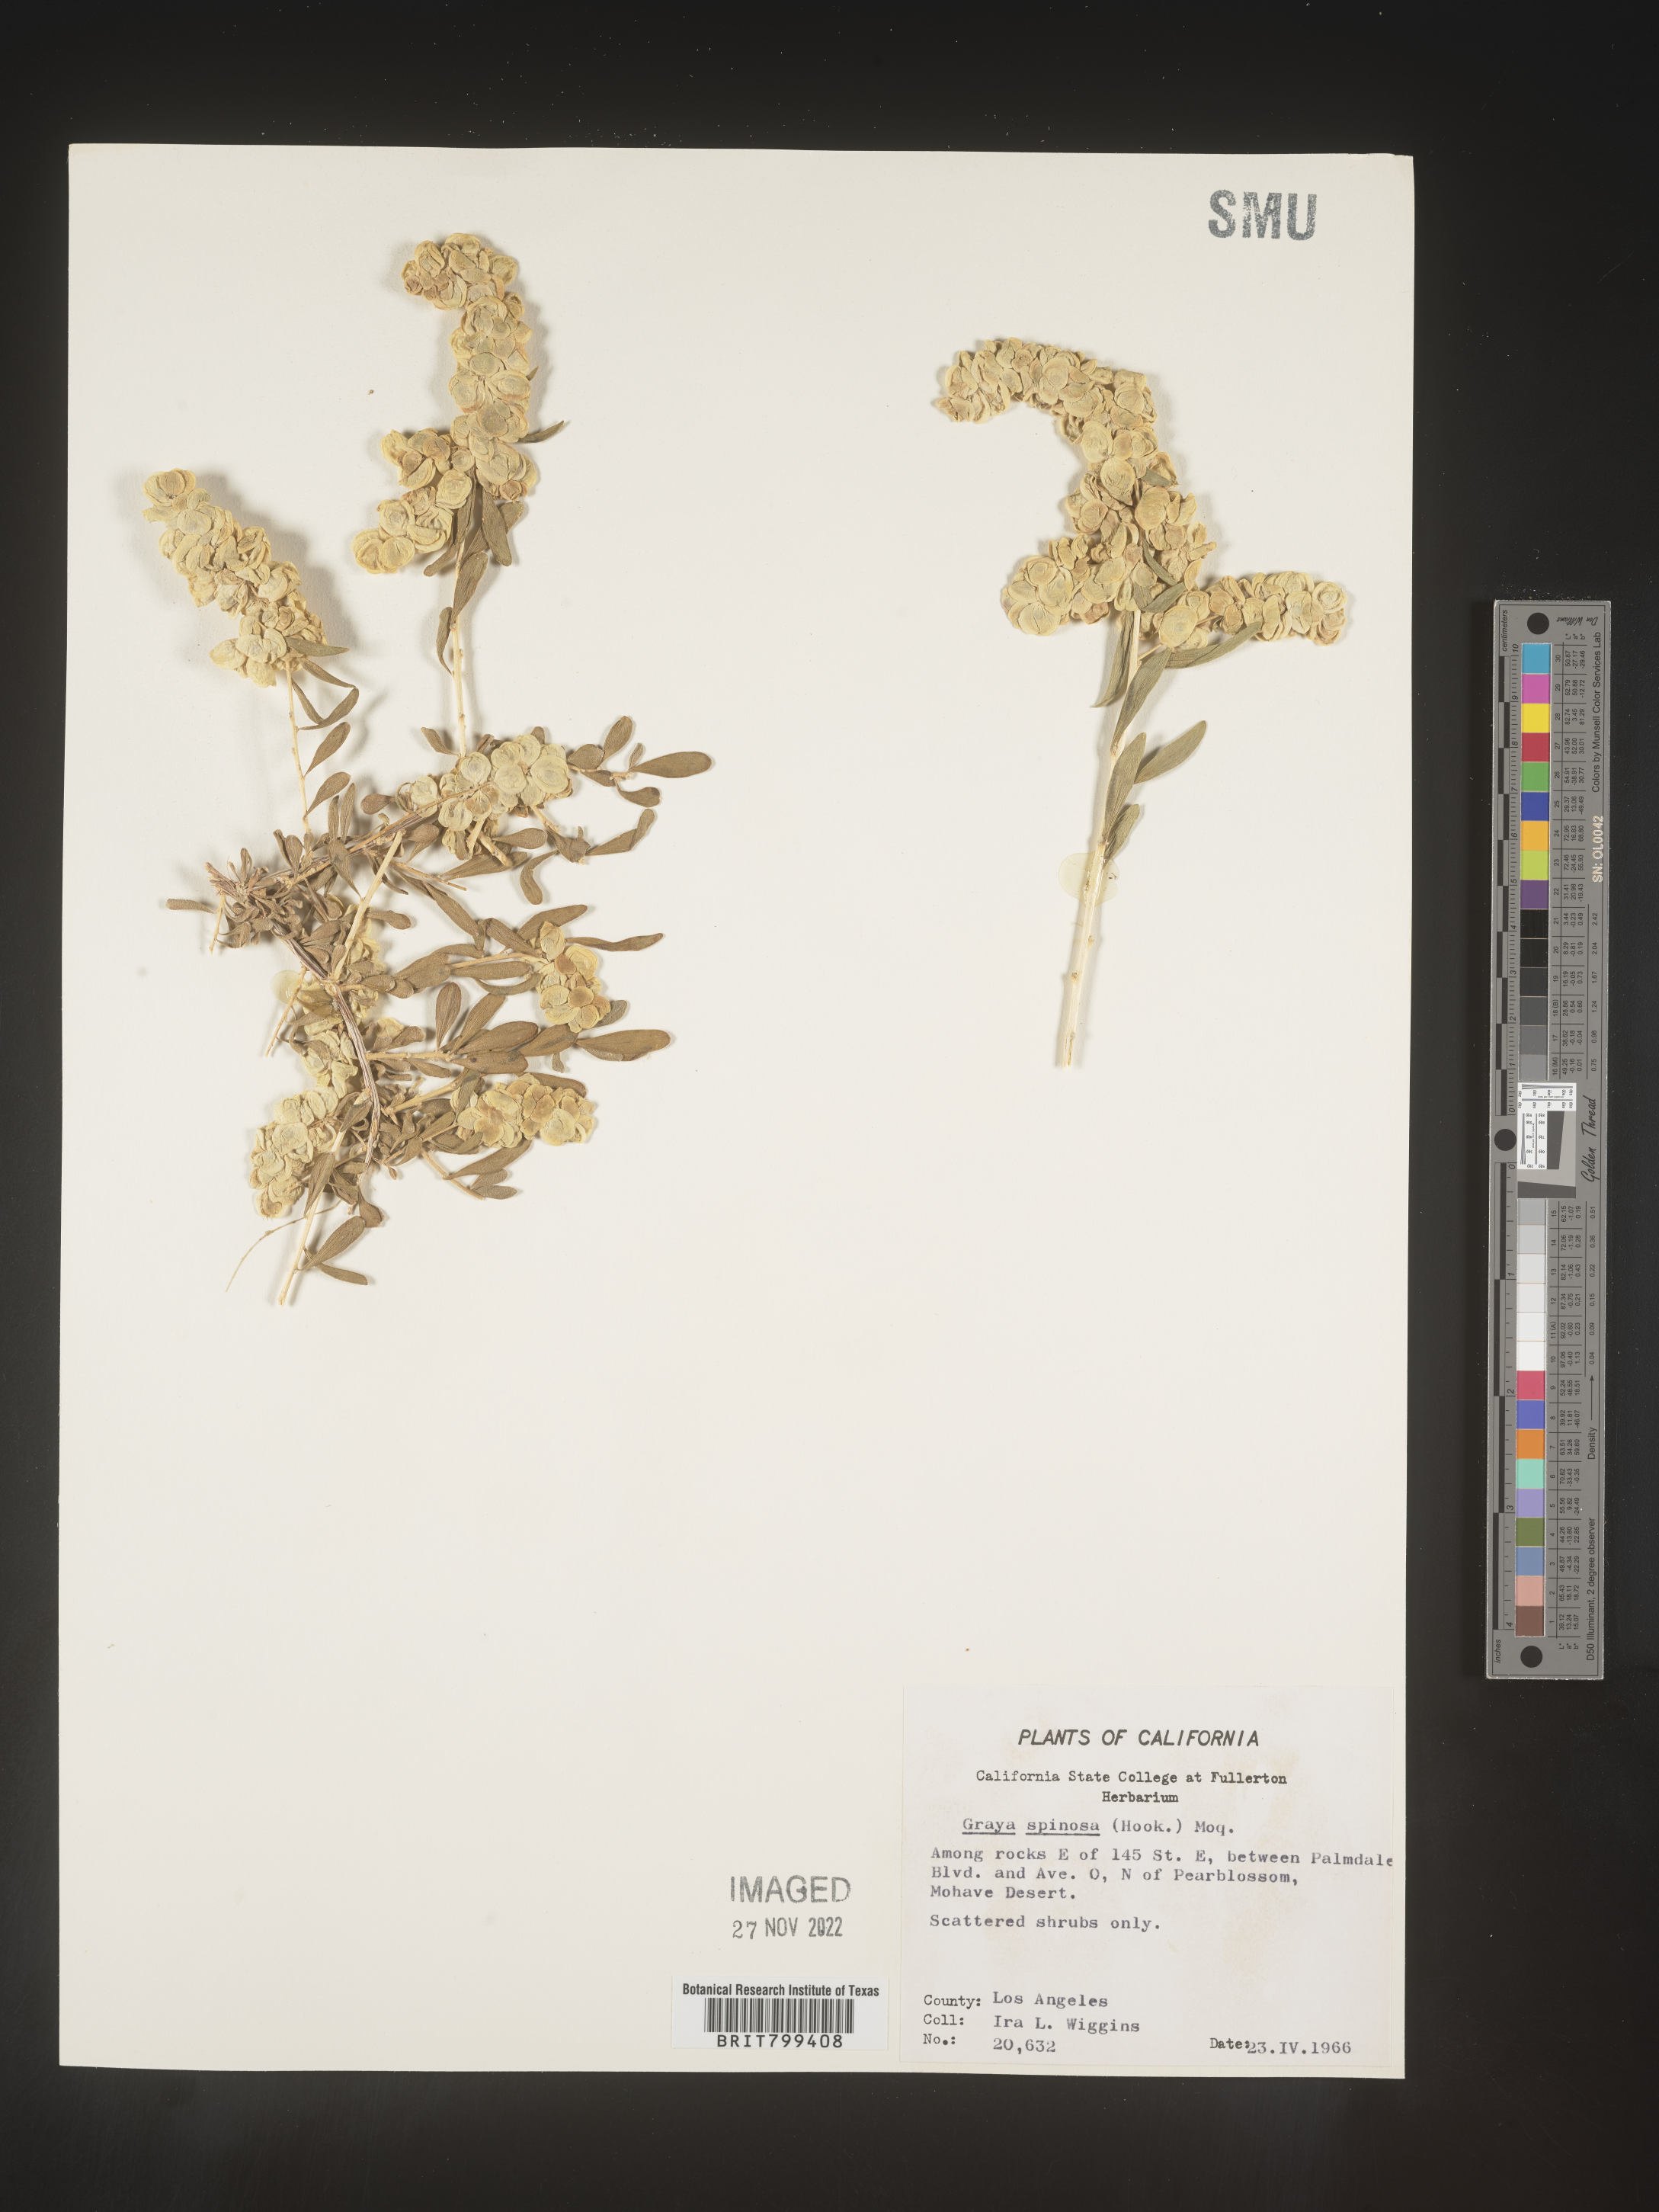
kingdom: Plantae
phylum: Tracheophyta
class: Magnoliopsida
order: Caryophyllales
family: Amaranthaceae
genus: Grayia
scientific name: Grayia spinosa
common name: Spiny hopsage
